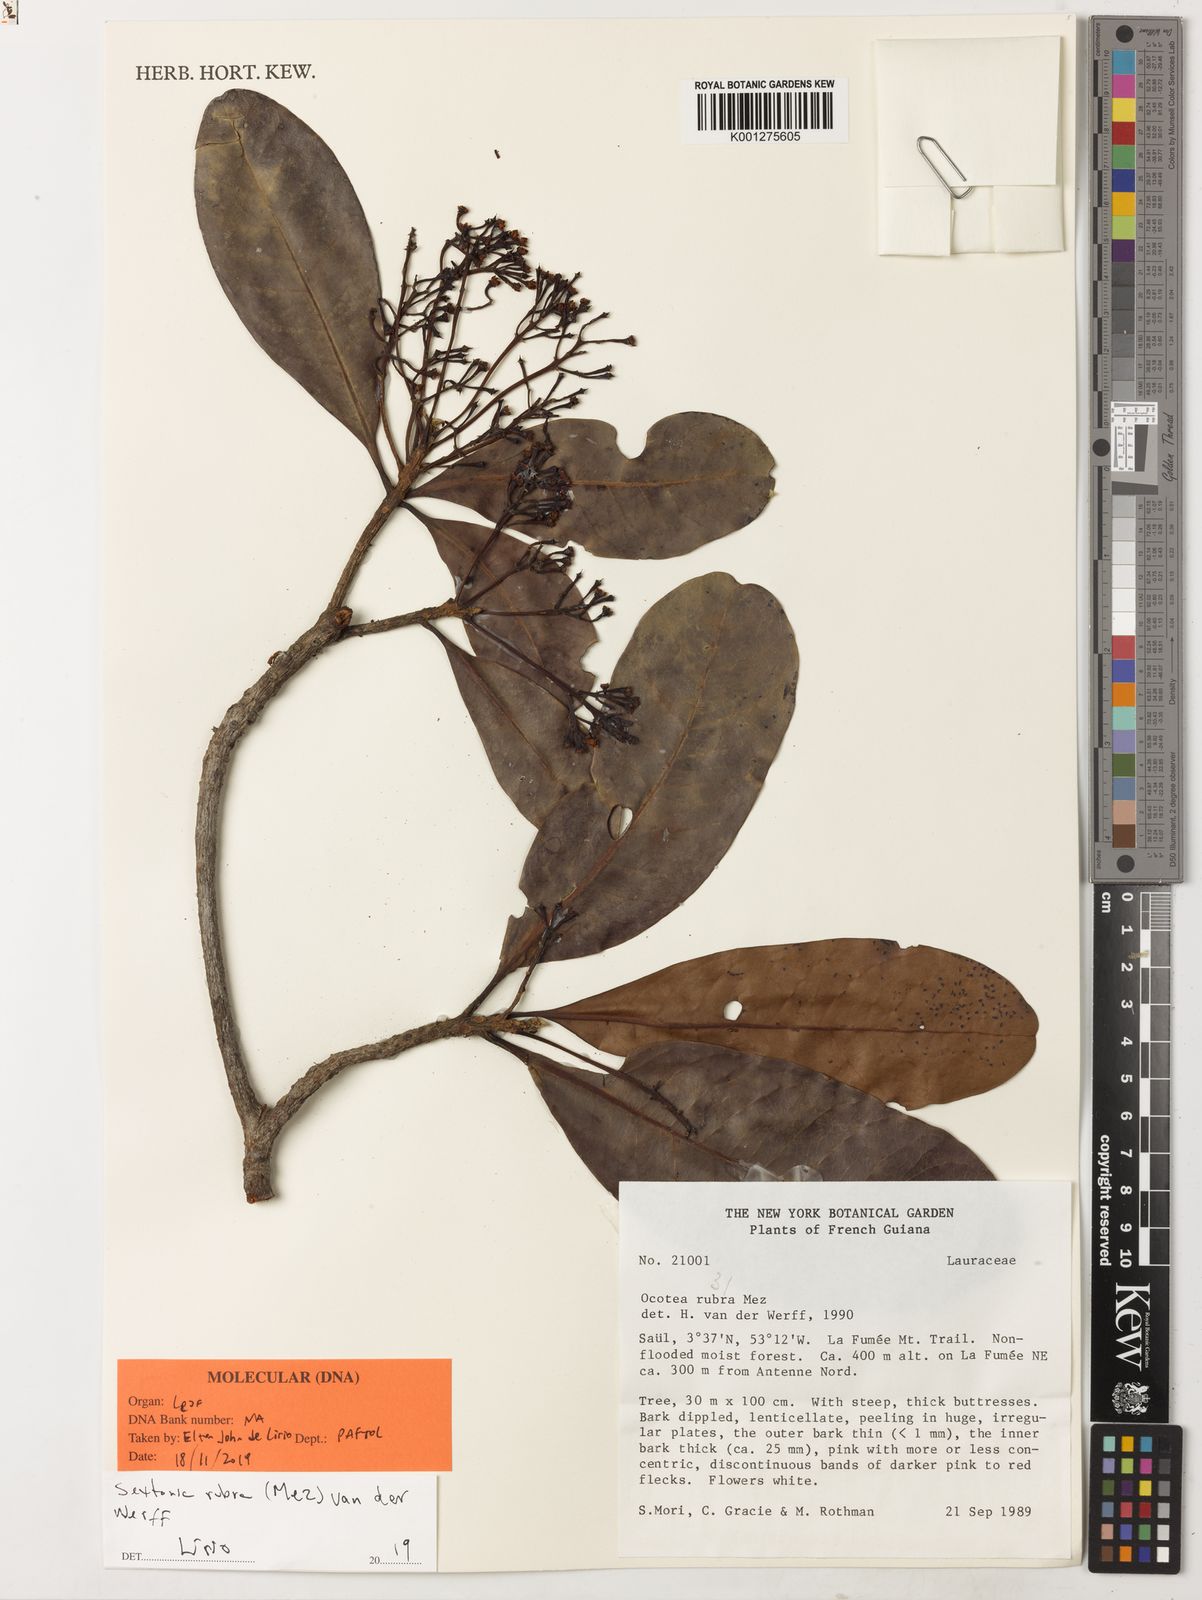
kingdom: Plantae
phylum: Tracheophyta
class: Magnoliopsida
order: Laurales
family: Lauraceae
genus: Sextonia
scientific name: Sextonia rubra
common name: Red louro
